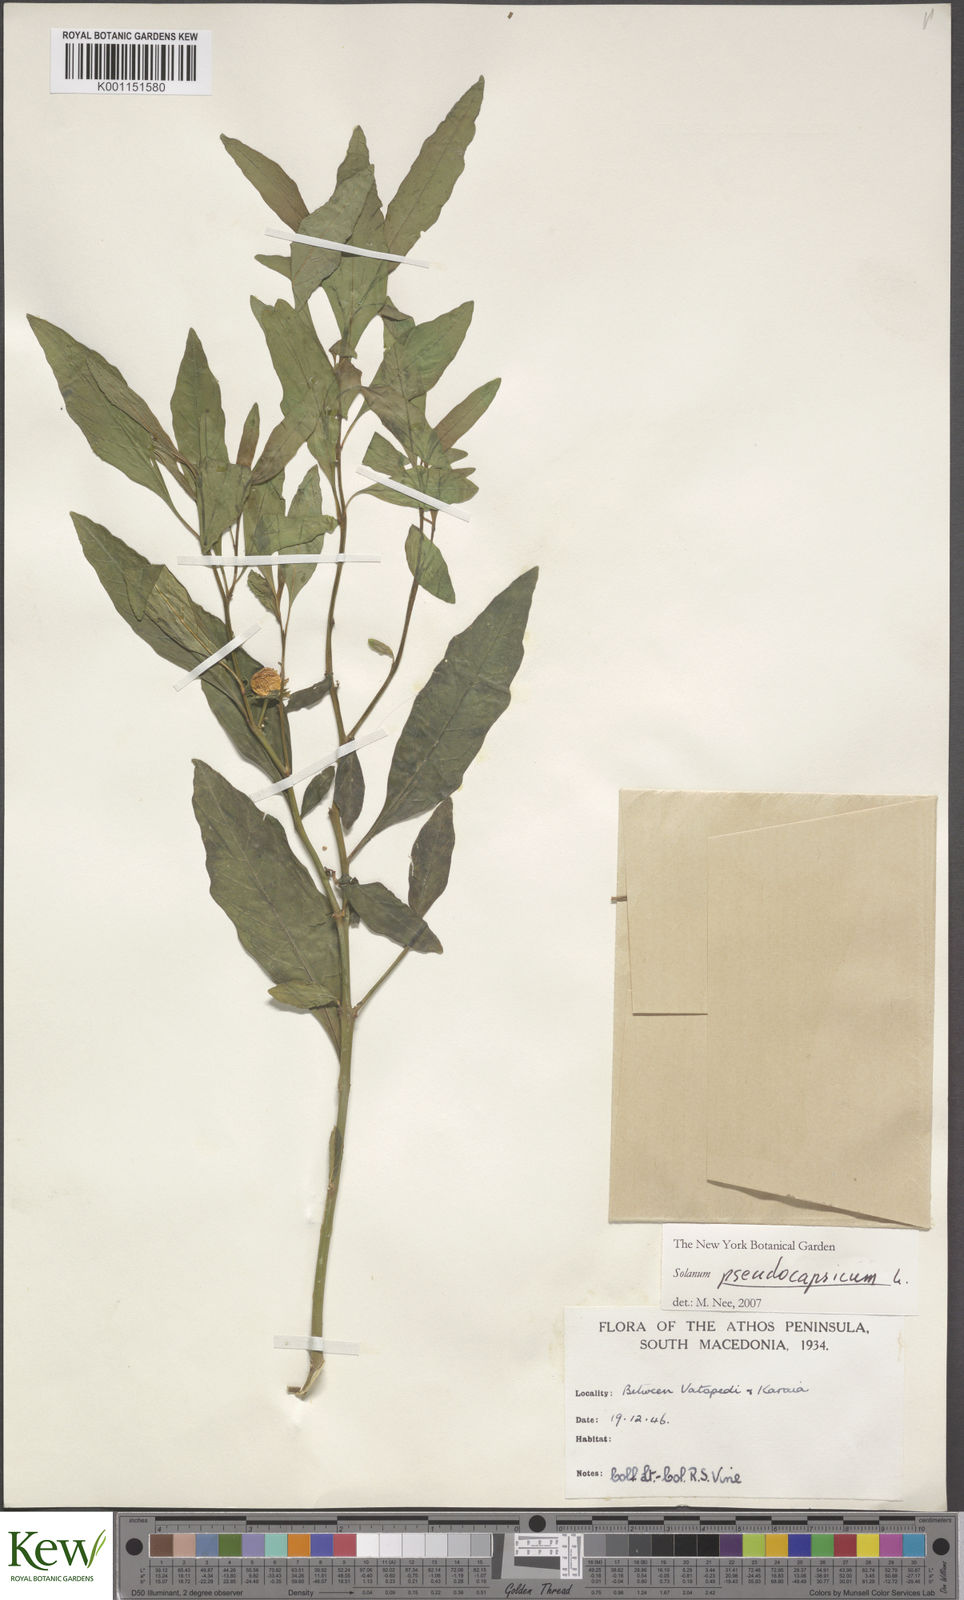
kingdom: Plantae
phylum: Tracheophyta
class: Magnoliopsida
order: Solanales
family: Solanaceae
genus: Solanum
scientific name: Solanum pseudocapsicum
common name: Jerusalem cherry
